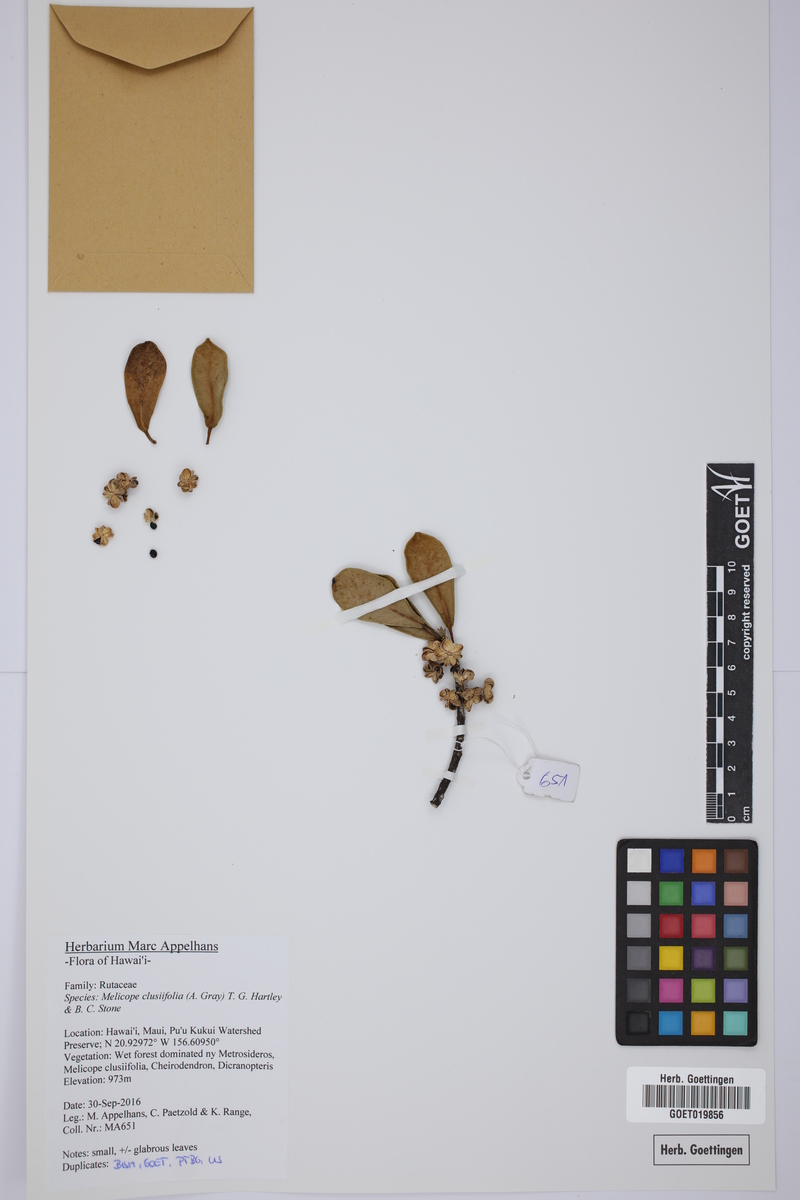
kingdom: Plantae
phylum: Tracheophyta
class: Magnoliopsida
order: Sapindales
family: Rutaceae
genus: Melicope
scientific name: Melicope clusiifolia
